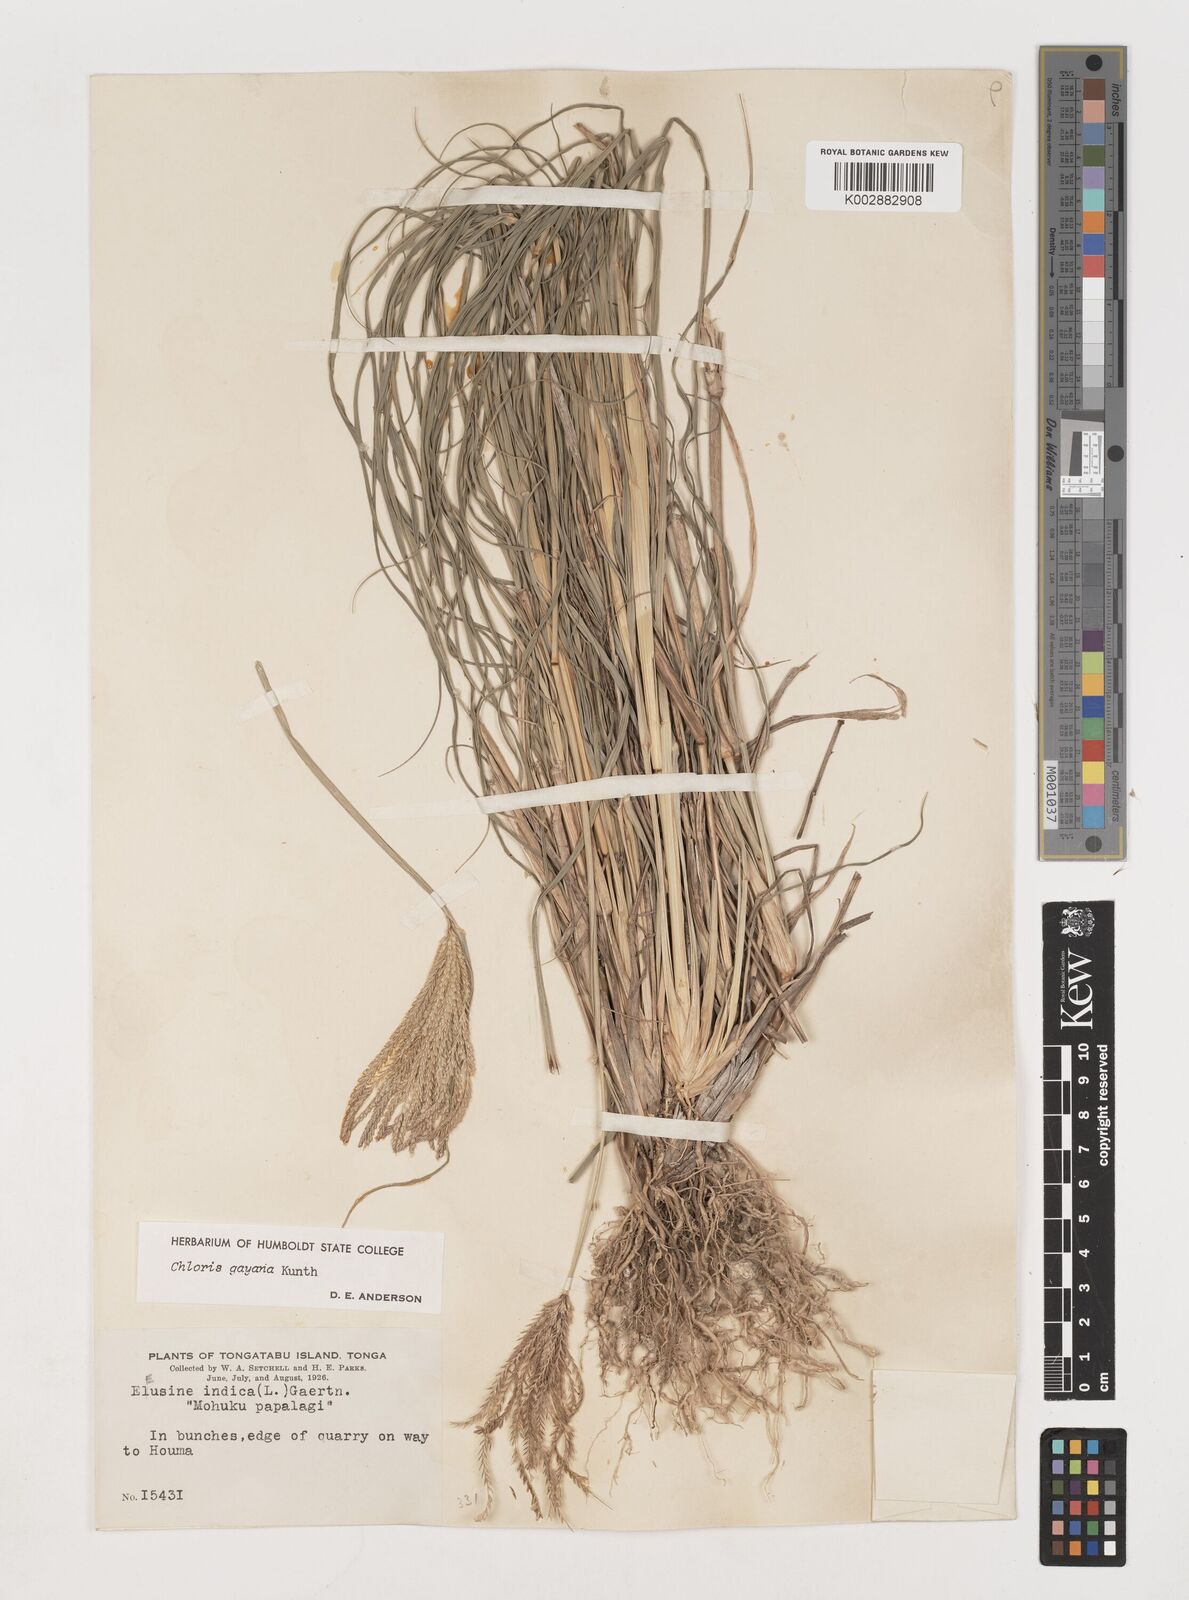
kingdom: Plantae
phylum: Tracheophyta
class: Liliopsida
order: Poales
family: Poaceae
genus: Chloris
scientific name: Chloris gayana
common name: Rhodes grass
